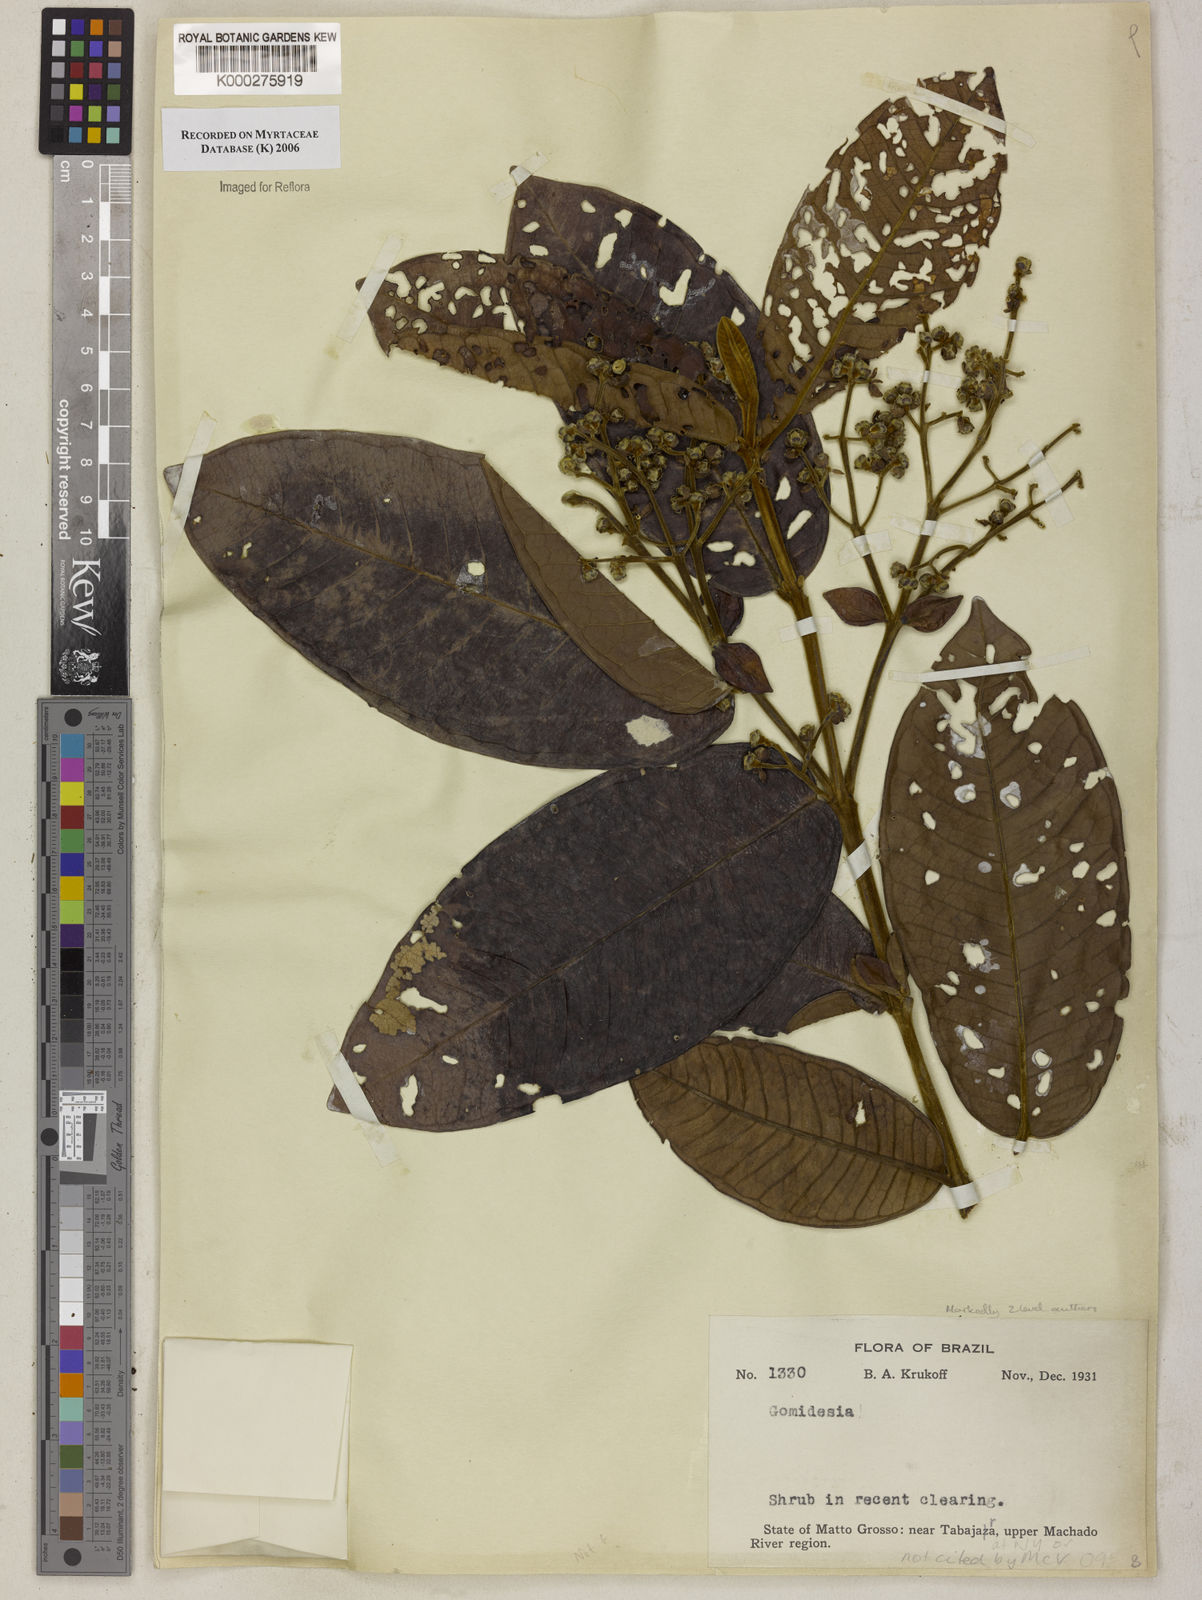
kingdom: Plantae
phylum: Tracheophyta
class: Magnoliopsida
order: Myrtales
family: Myrtaceae
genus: Myrcia
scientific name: Myrcia
